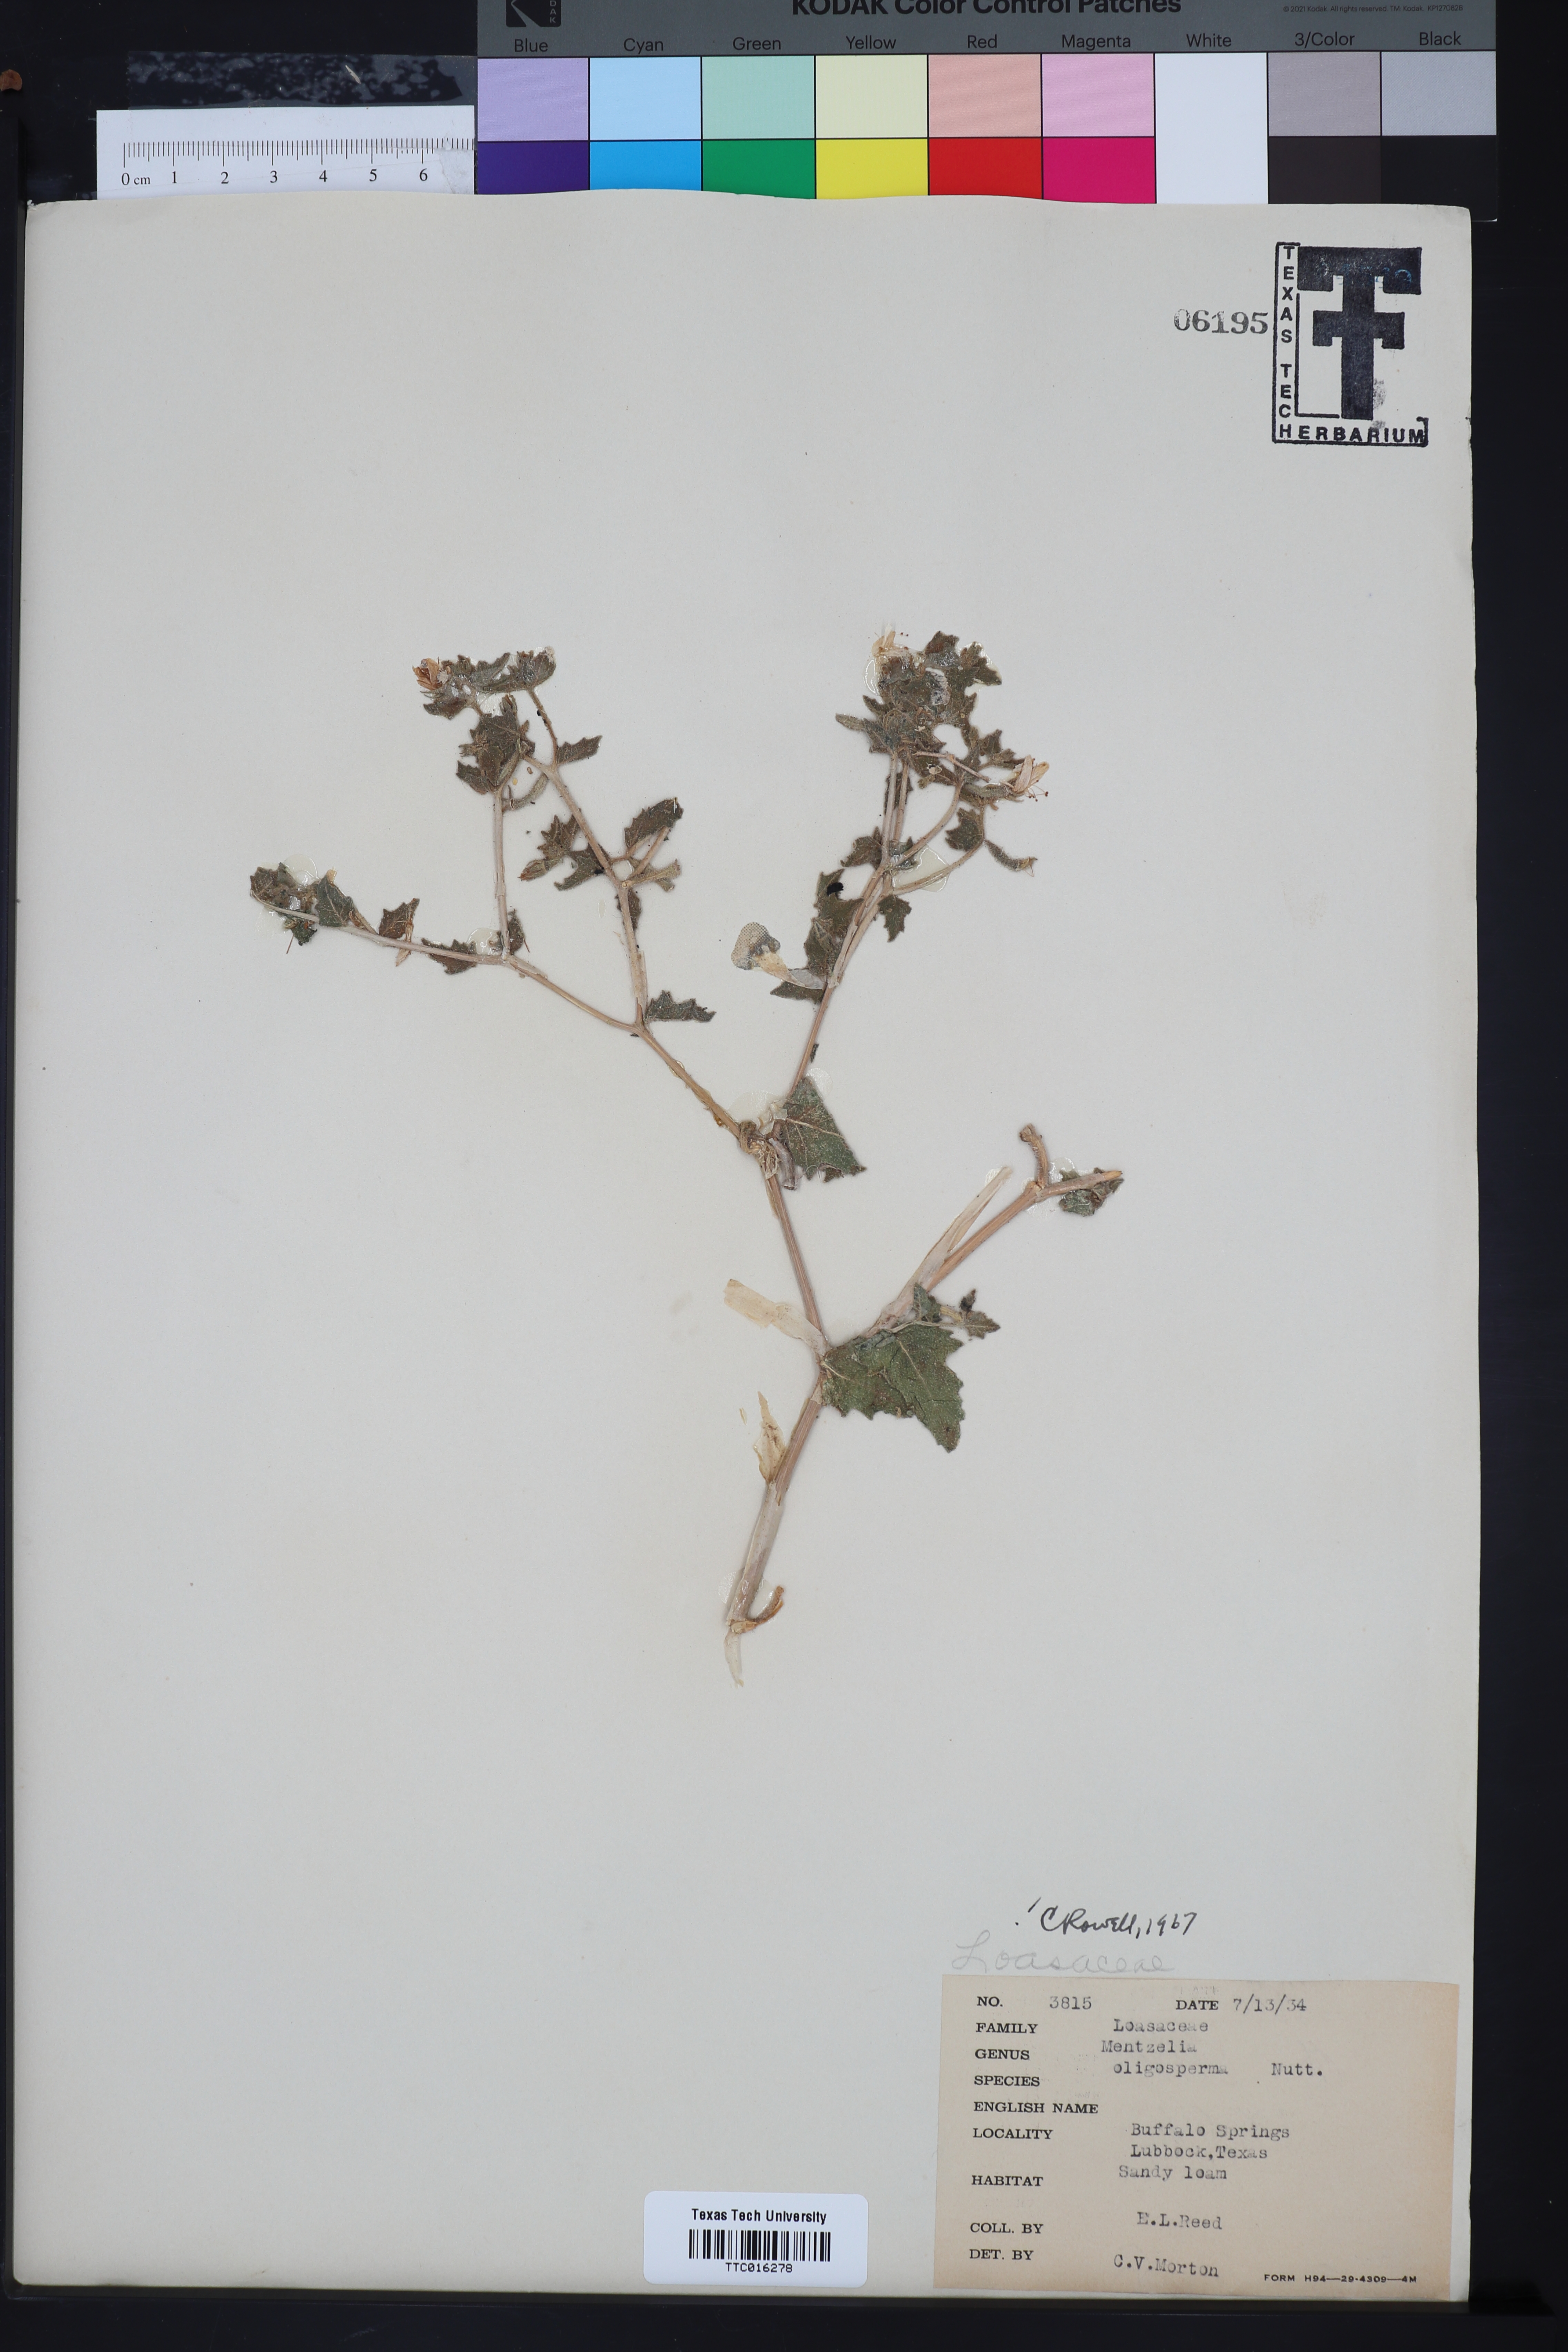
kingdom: Plantae
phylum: Tracheophyta
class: Magnoliopsida
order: Cornales
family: Loasaceae
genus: Mentzelia
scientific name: Mentzelia oligosperma
